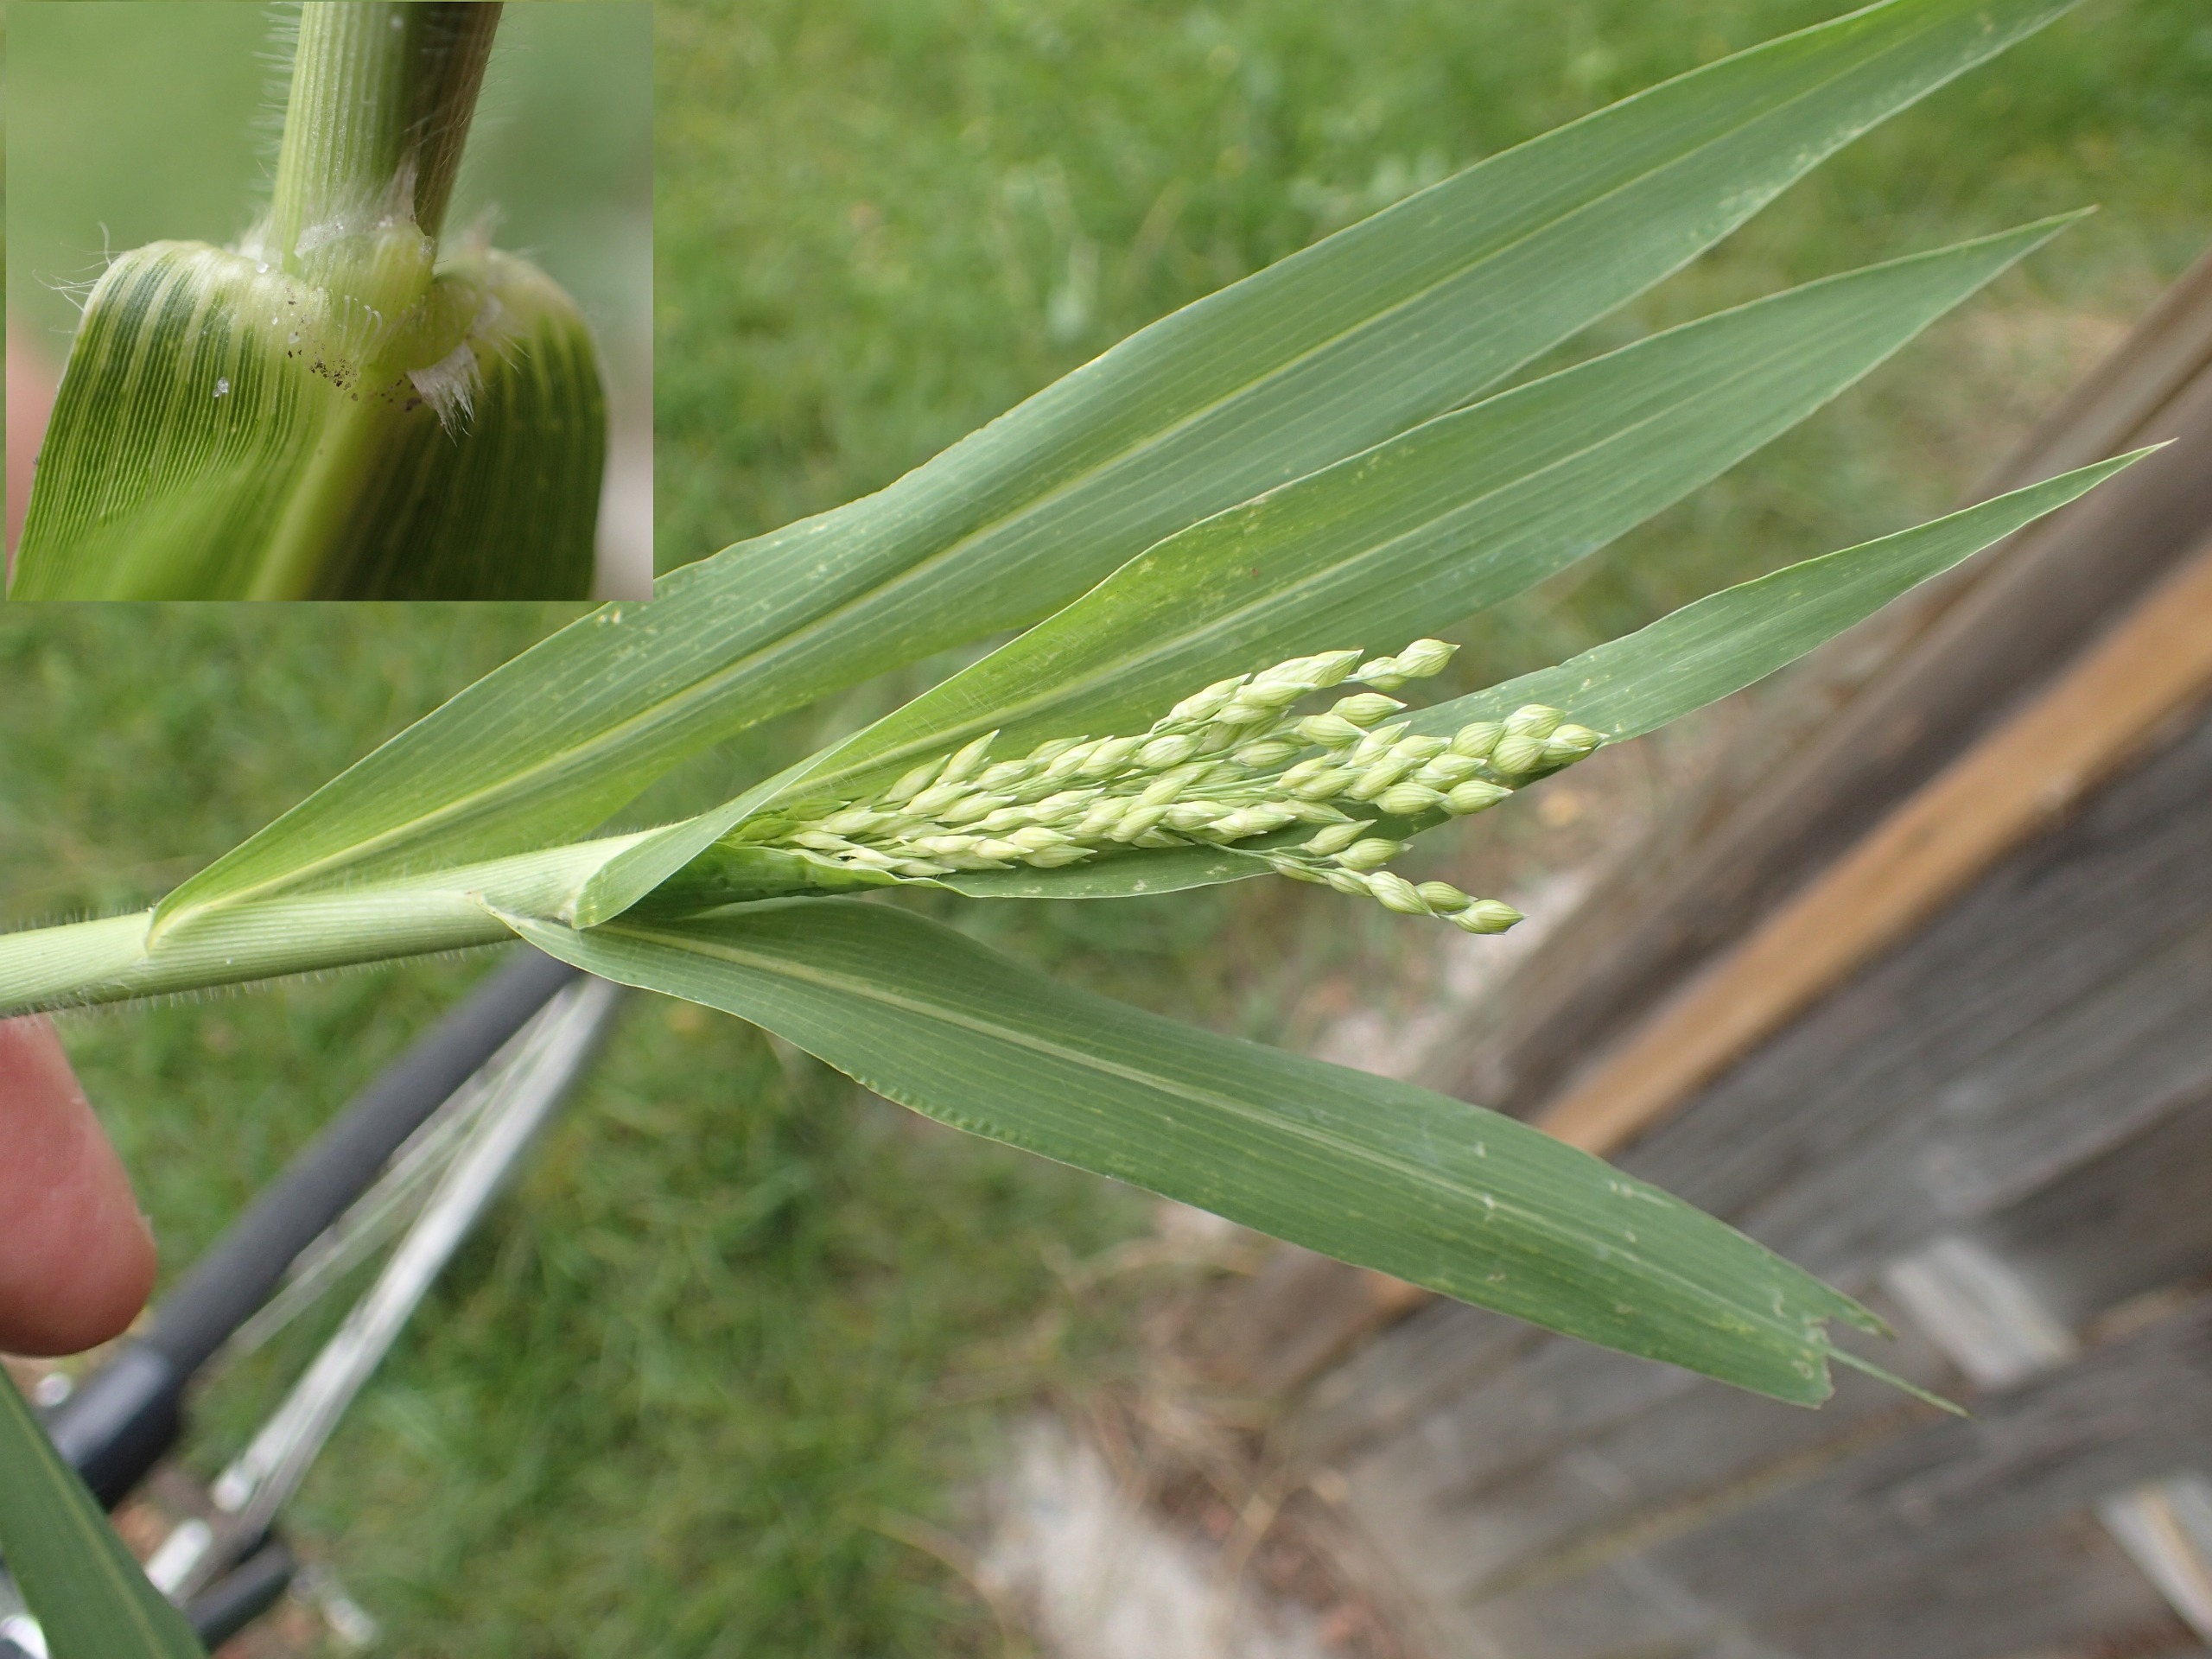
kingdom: Plantae
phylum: Tracheophyta
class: Liliopsida
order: Poales
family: Poaceae
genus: Panicum
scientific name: Panicum miliaceum
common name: Almindelig hirse
